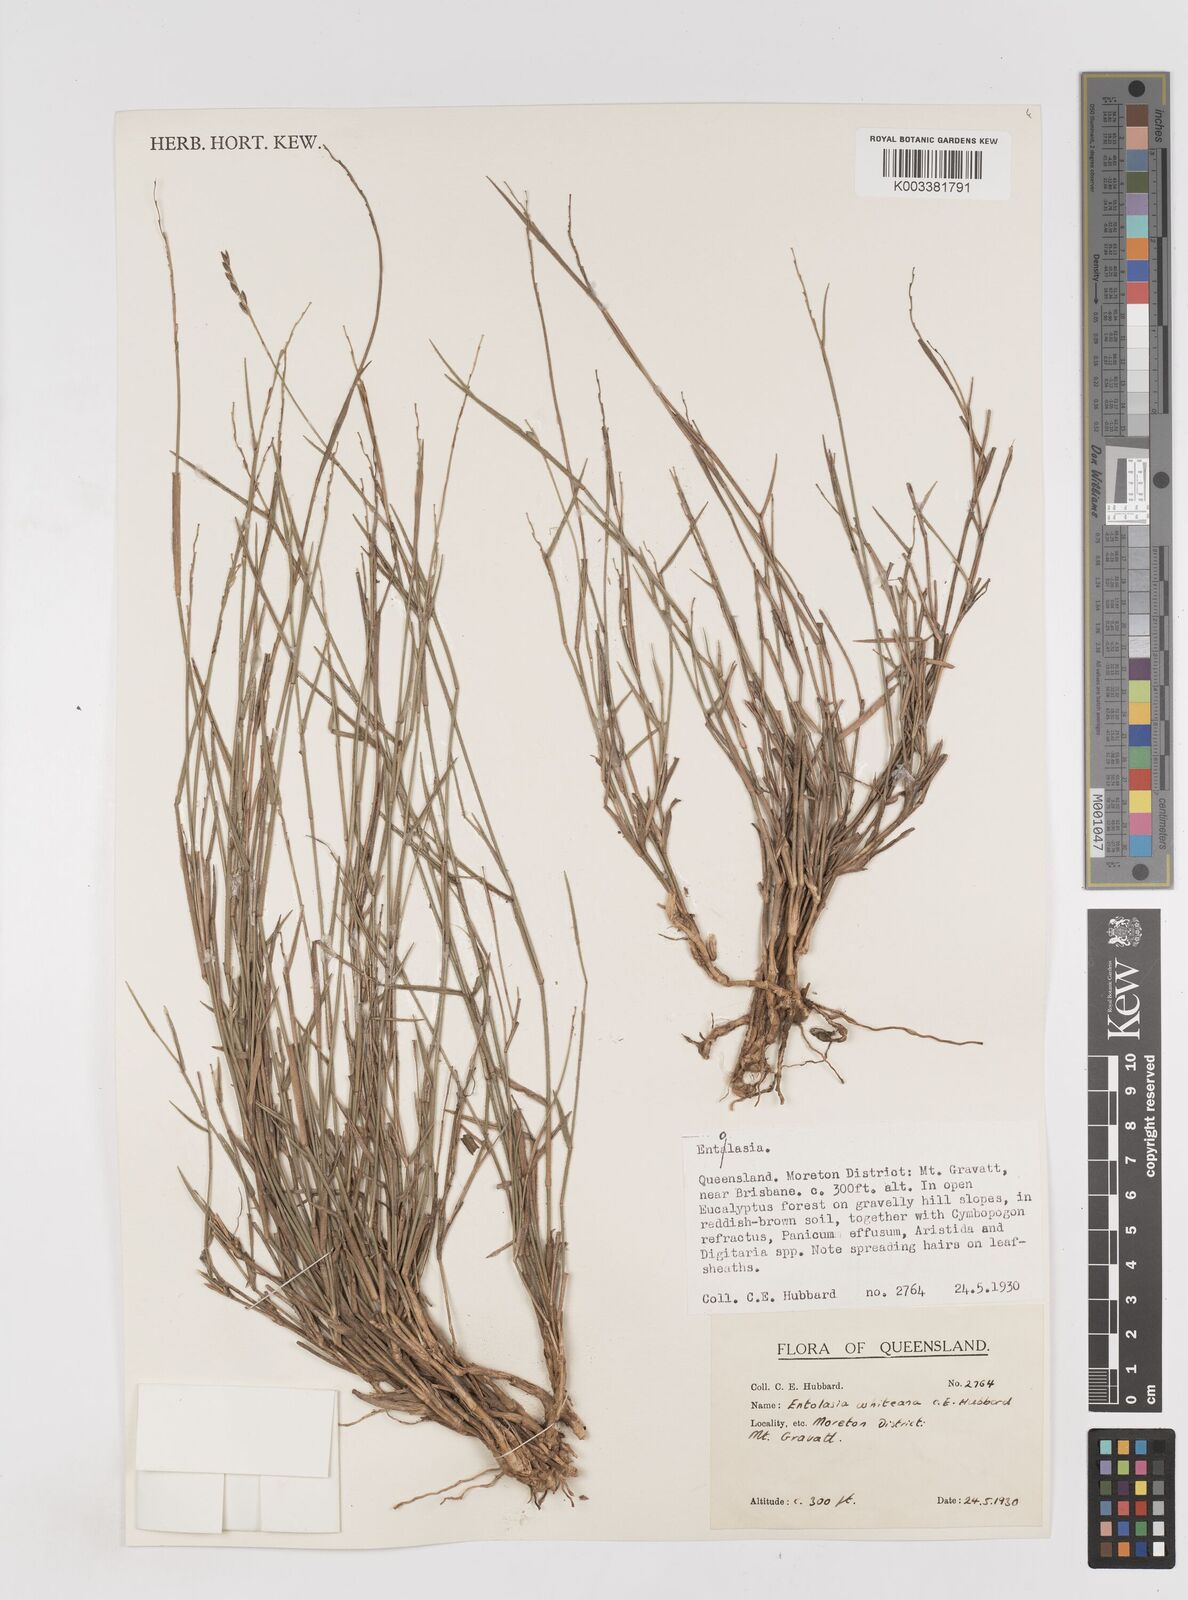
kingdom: Plantae
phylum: Tracheophyta
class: Liliopsida
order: Poales
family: Poaceae
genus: Entolasia
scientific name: Entolasia whiteana
